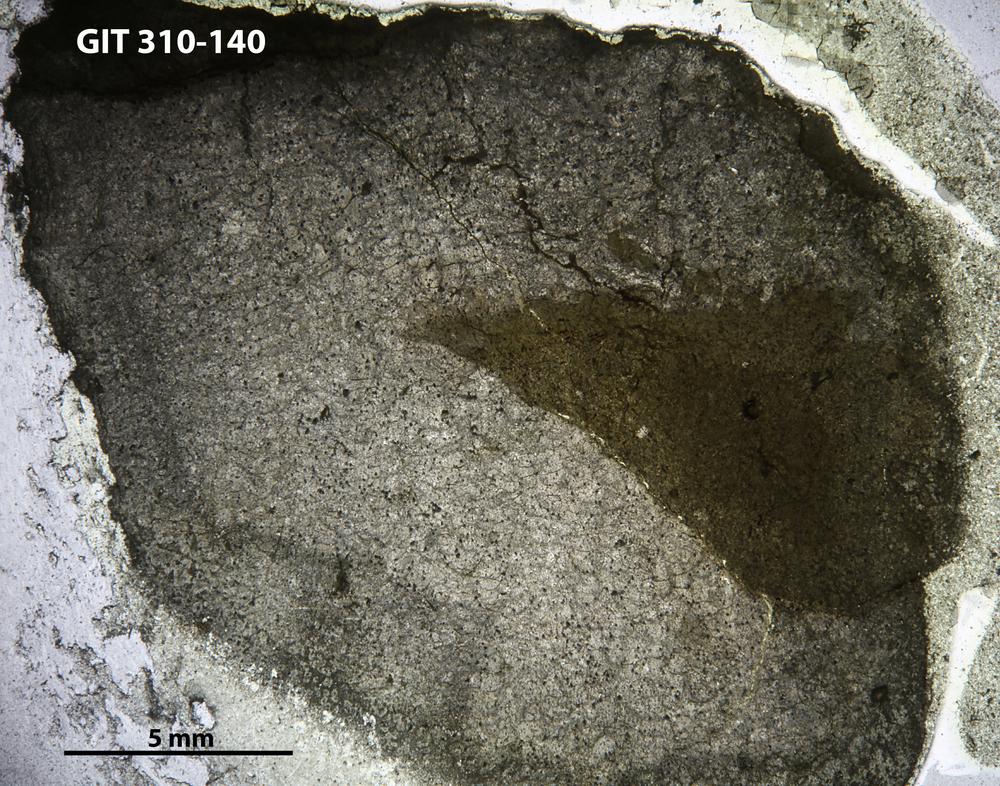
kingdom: Animalia
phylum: Cnidaria
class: Anthozoa
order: Heliolitina
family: Plasmoporellidae
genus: Plasmoporella
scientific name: Plasmoporella
